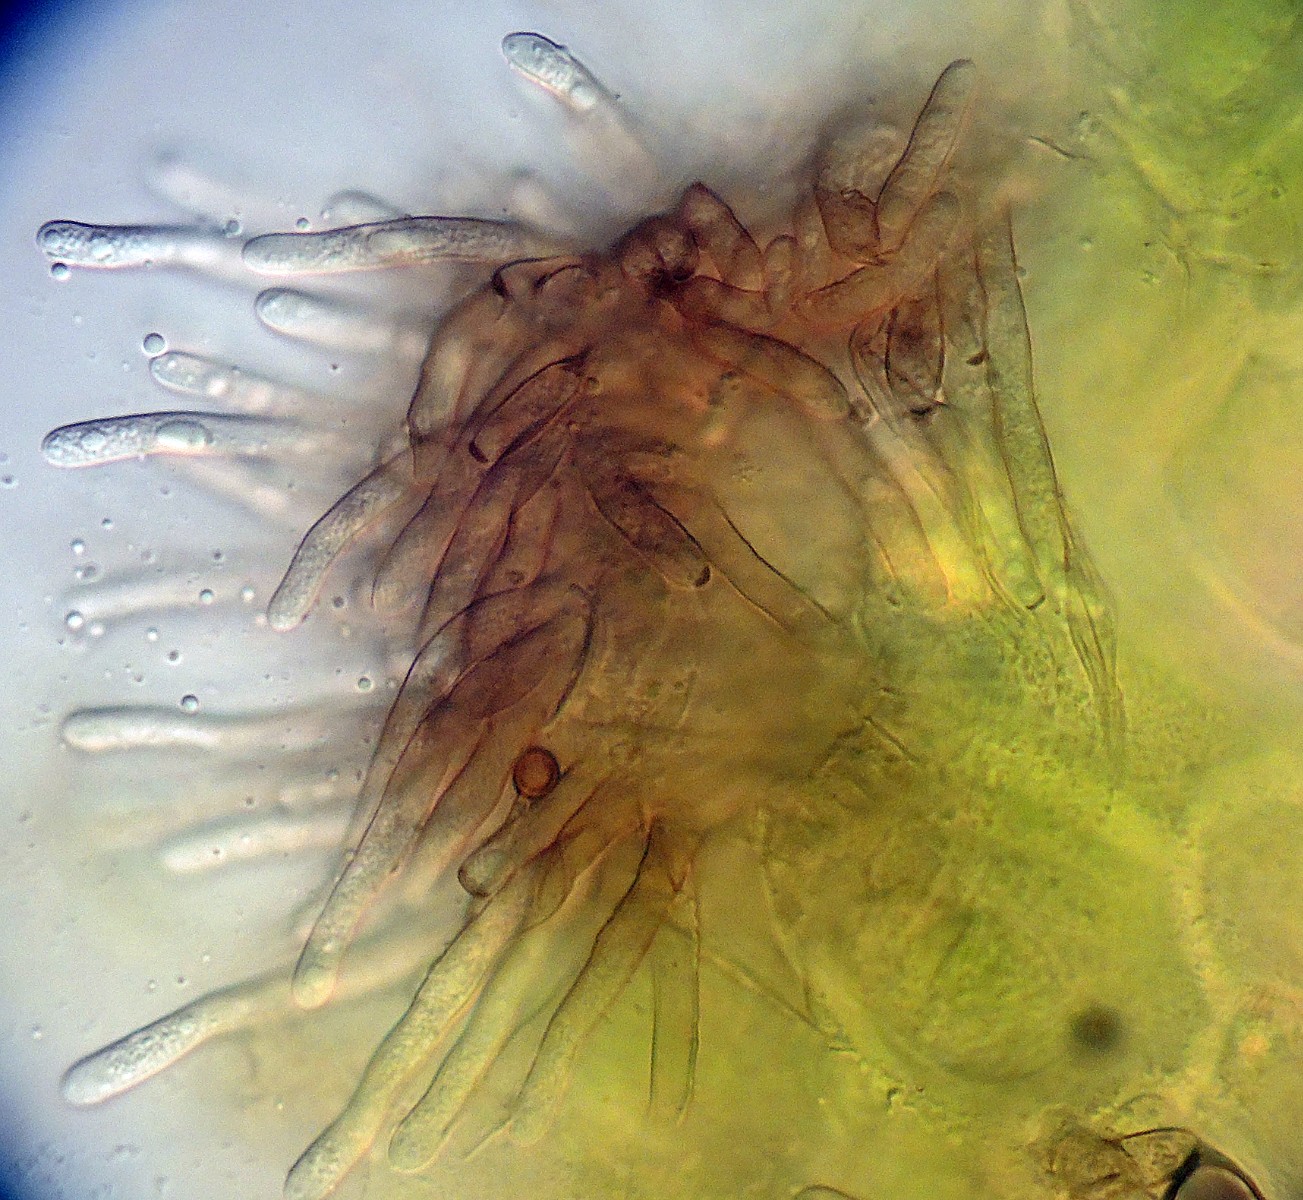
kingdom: Fungi
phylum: Ascomycota
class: Dothideomycetes
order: Mycosphaerellales
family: Mycosphaerellaceae
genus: Passalora
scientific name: Passalora dubia
